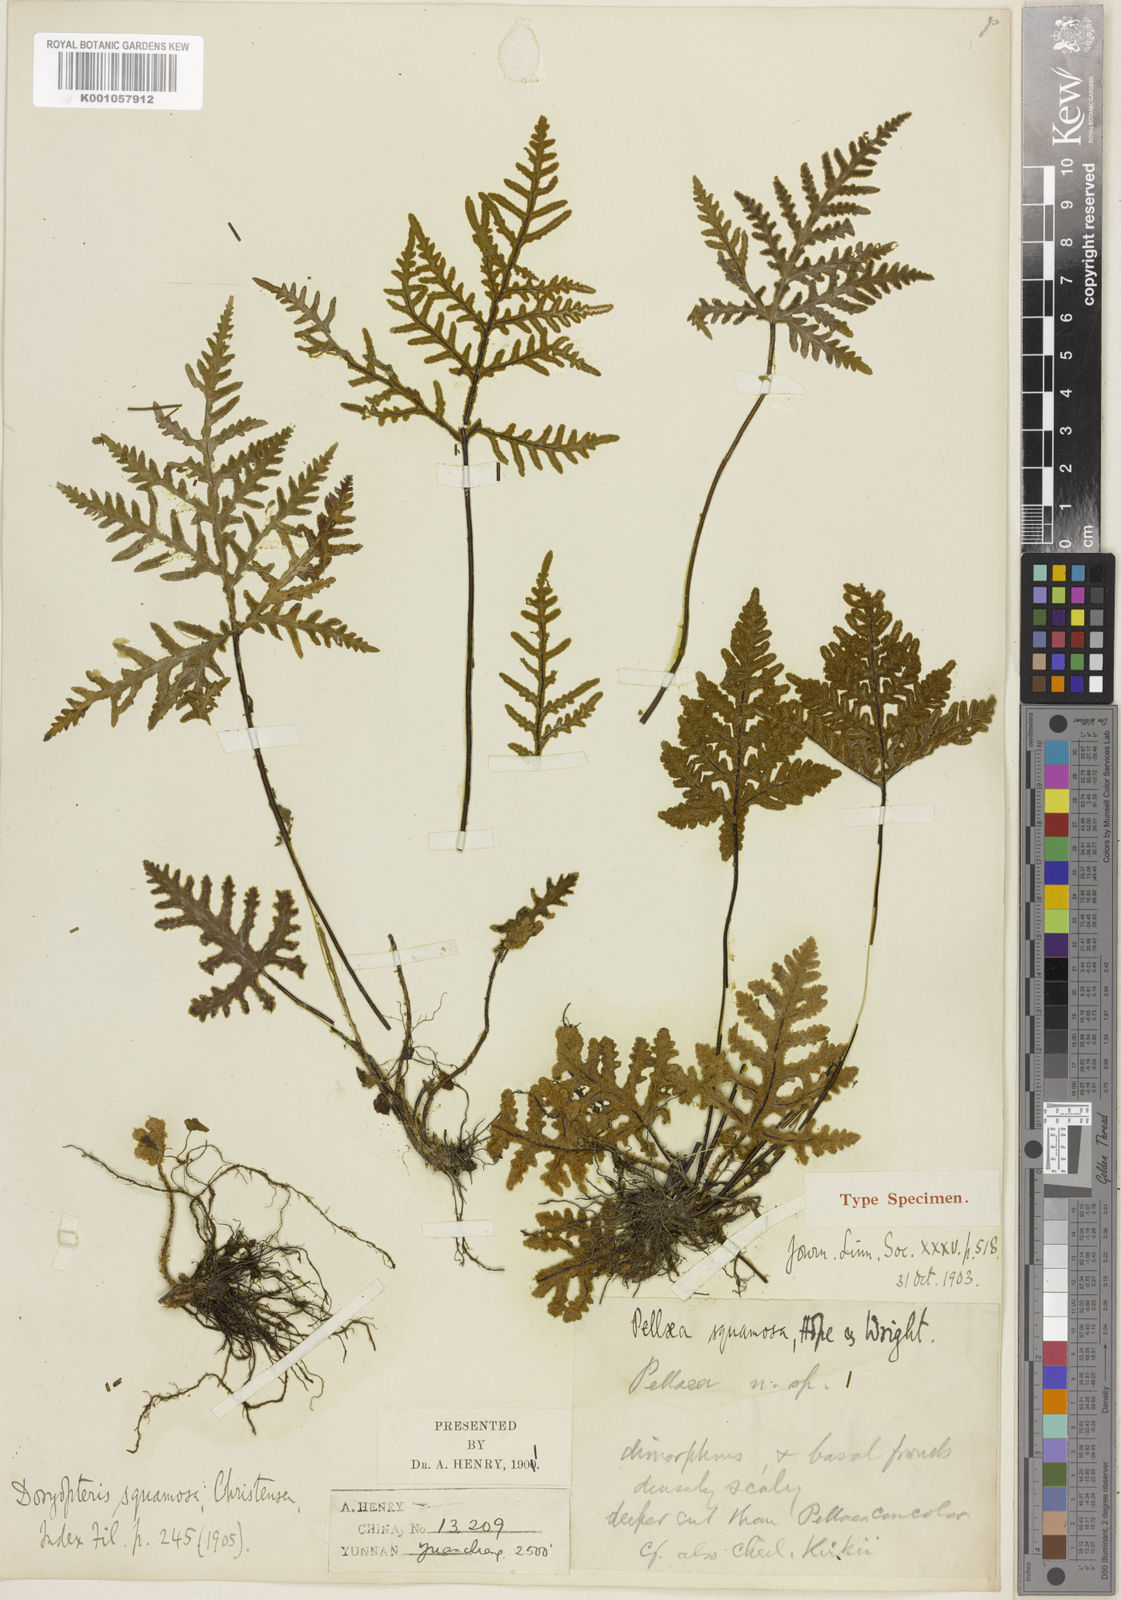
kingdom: Plantae
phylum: Tracheophyta
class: Polypodiopsida
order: Polypodiales
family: Pteridaceae
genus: Aleuritopteris
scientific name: Aleuritopteris squamosa
